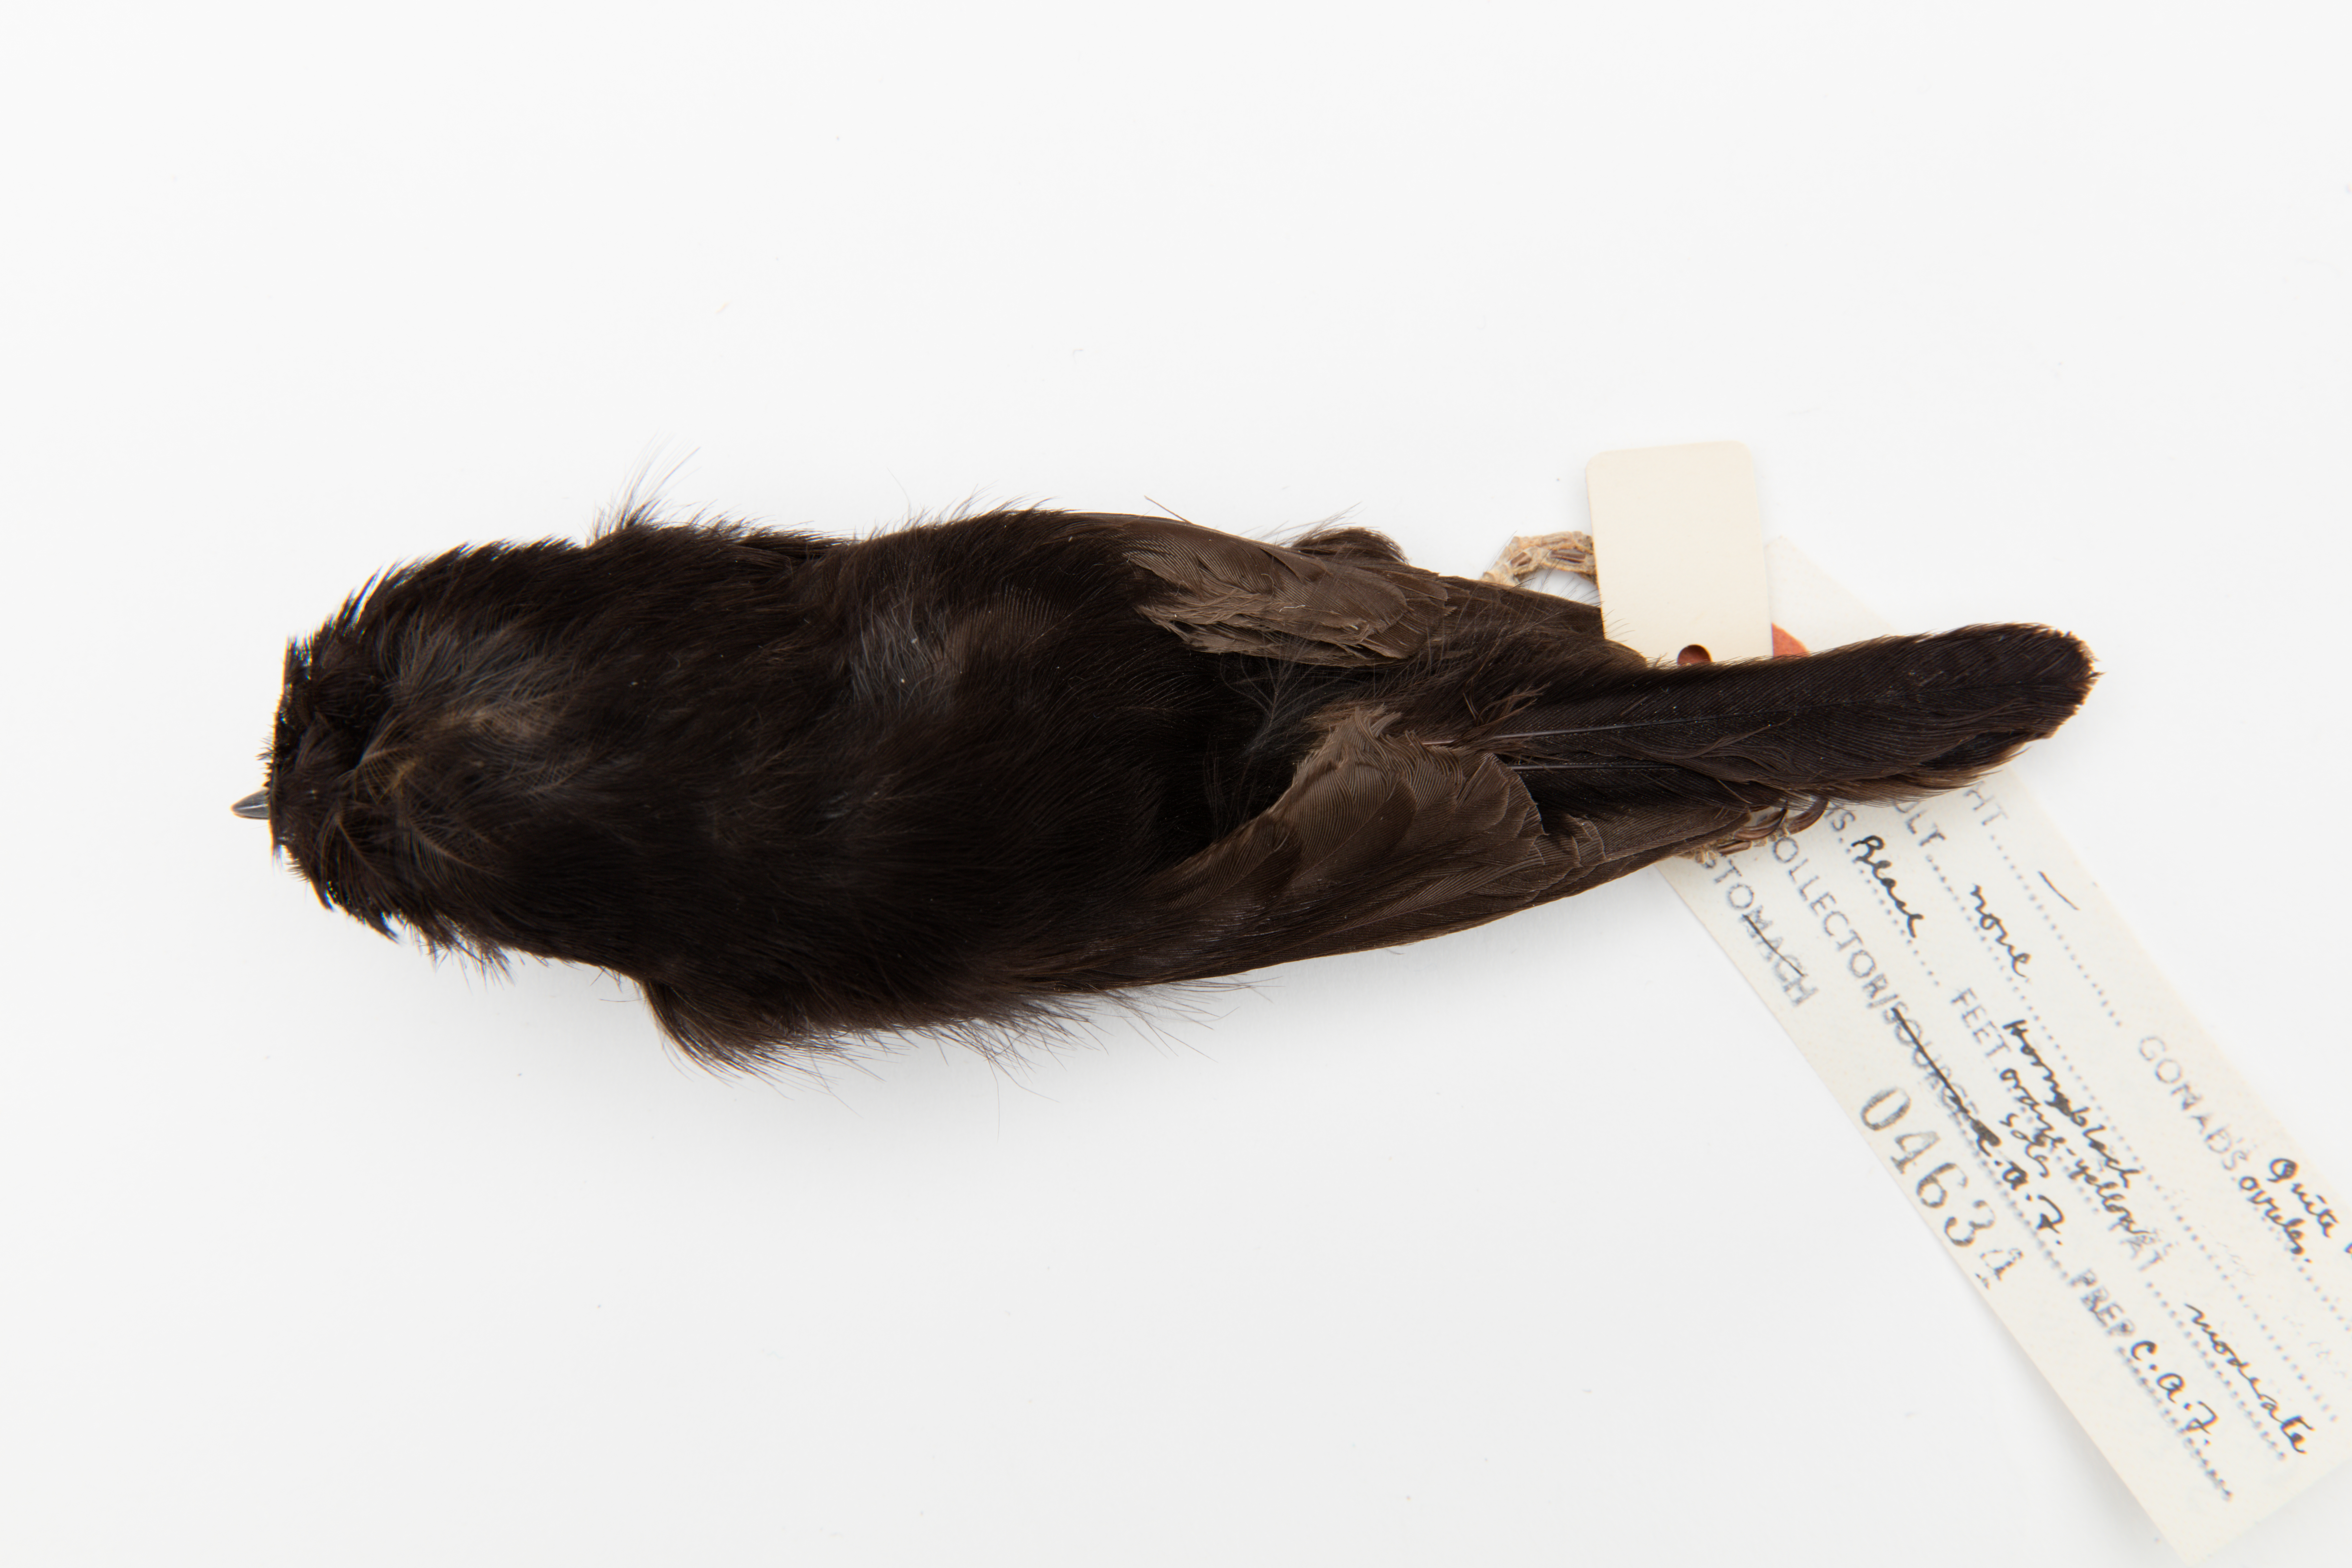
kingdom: Animalia
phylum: Chordata
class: Aves
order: Passeriformes
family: Petroicidae
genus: Petroica
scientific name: Petroica macrocephala
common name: Tomtit
